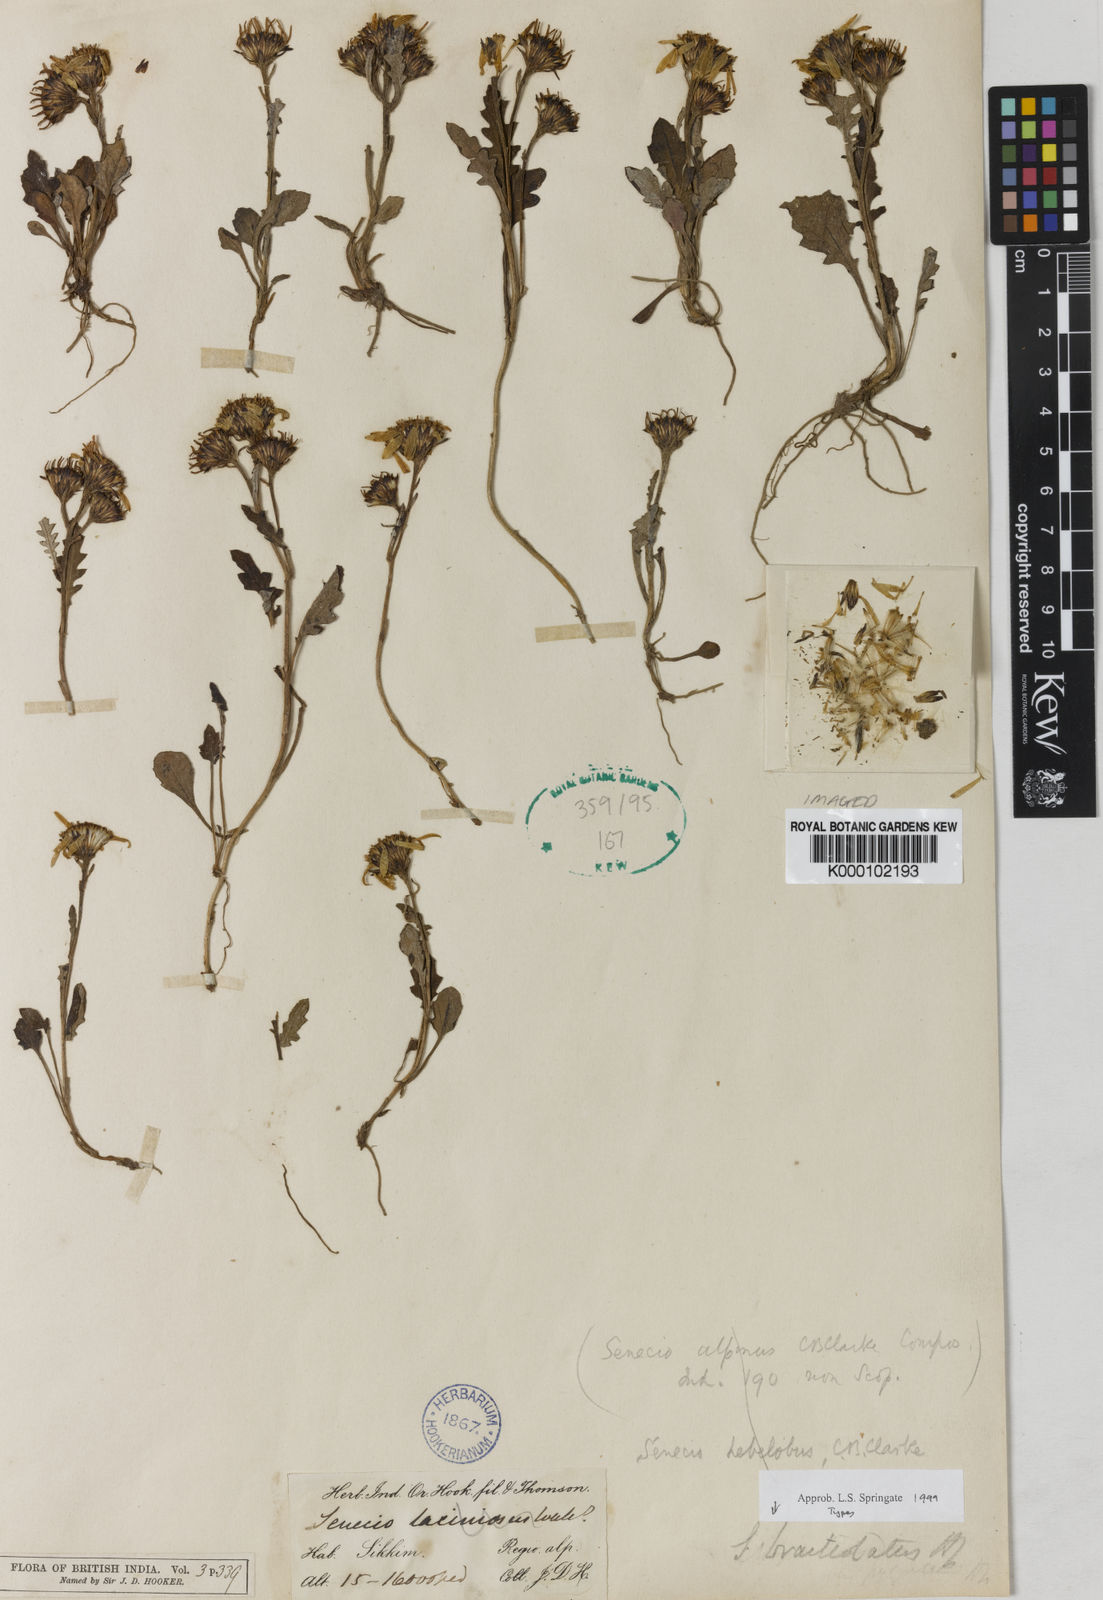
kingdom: Plantae
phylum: Tracheophyta
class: Magnoliopsida
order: Asterales
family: Asteraceae
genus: Senecio
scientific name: Senecio albopurpureus
